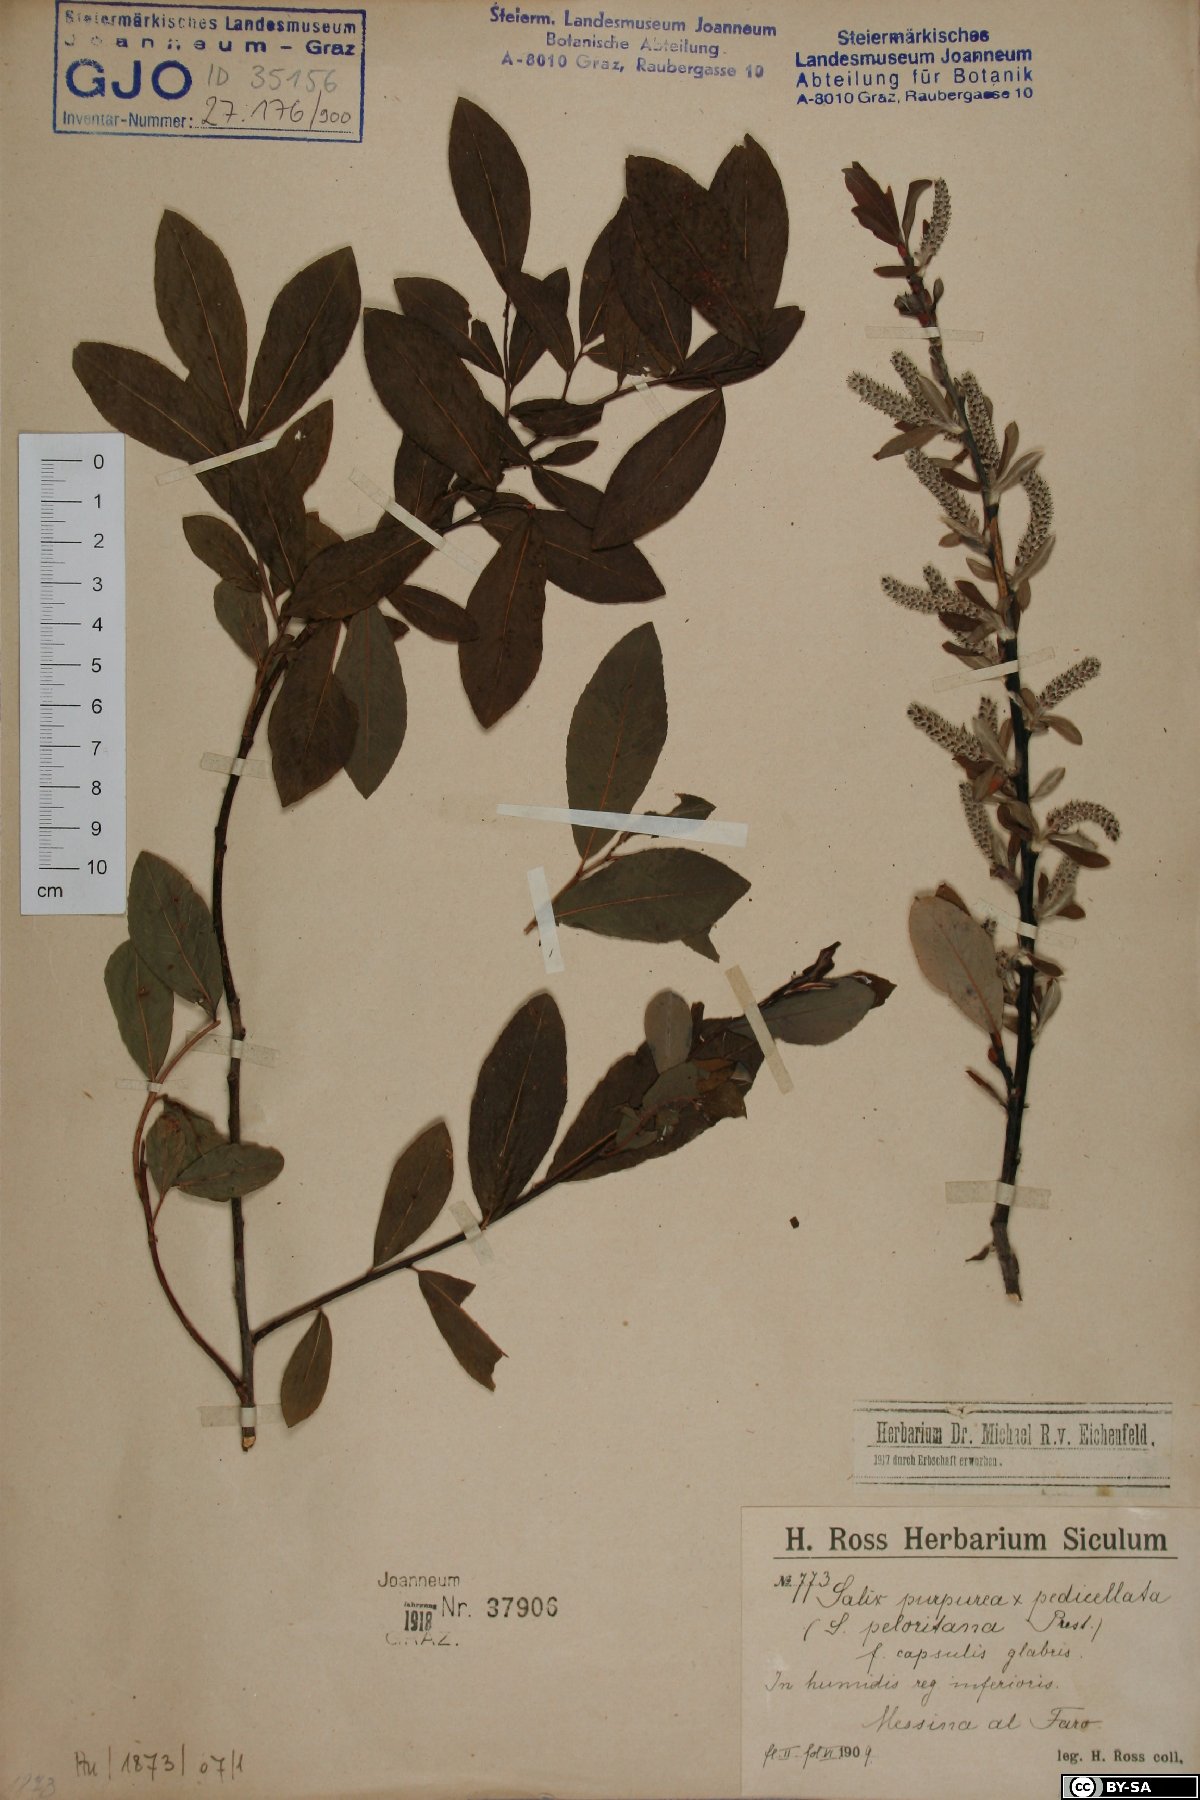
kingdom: Plantae
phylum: Tracheophyta
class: Magnoliopsida
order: Malpighiales
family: Salicaceae
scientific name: Salicaceae
